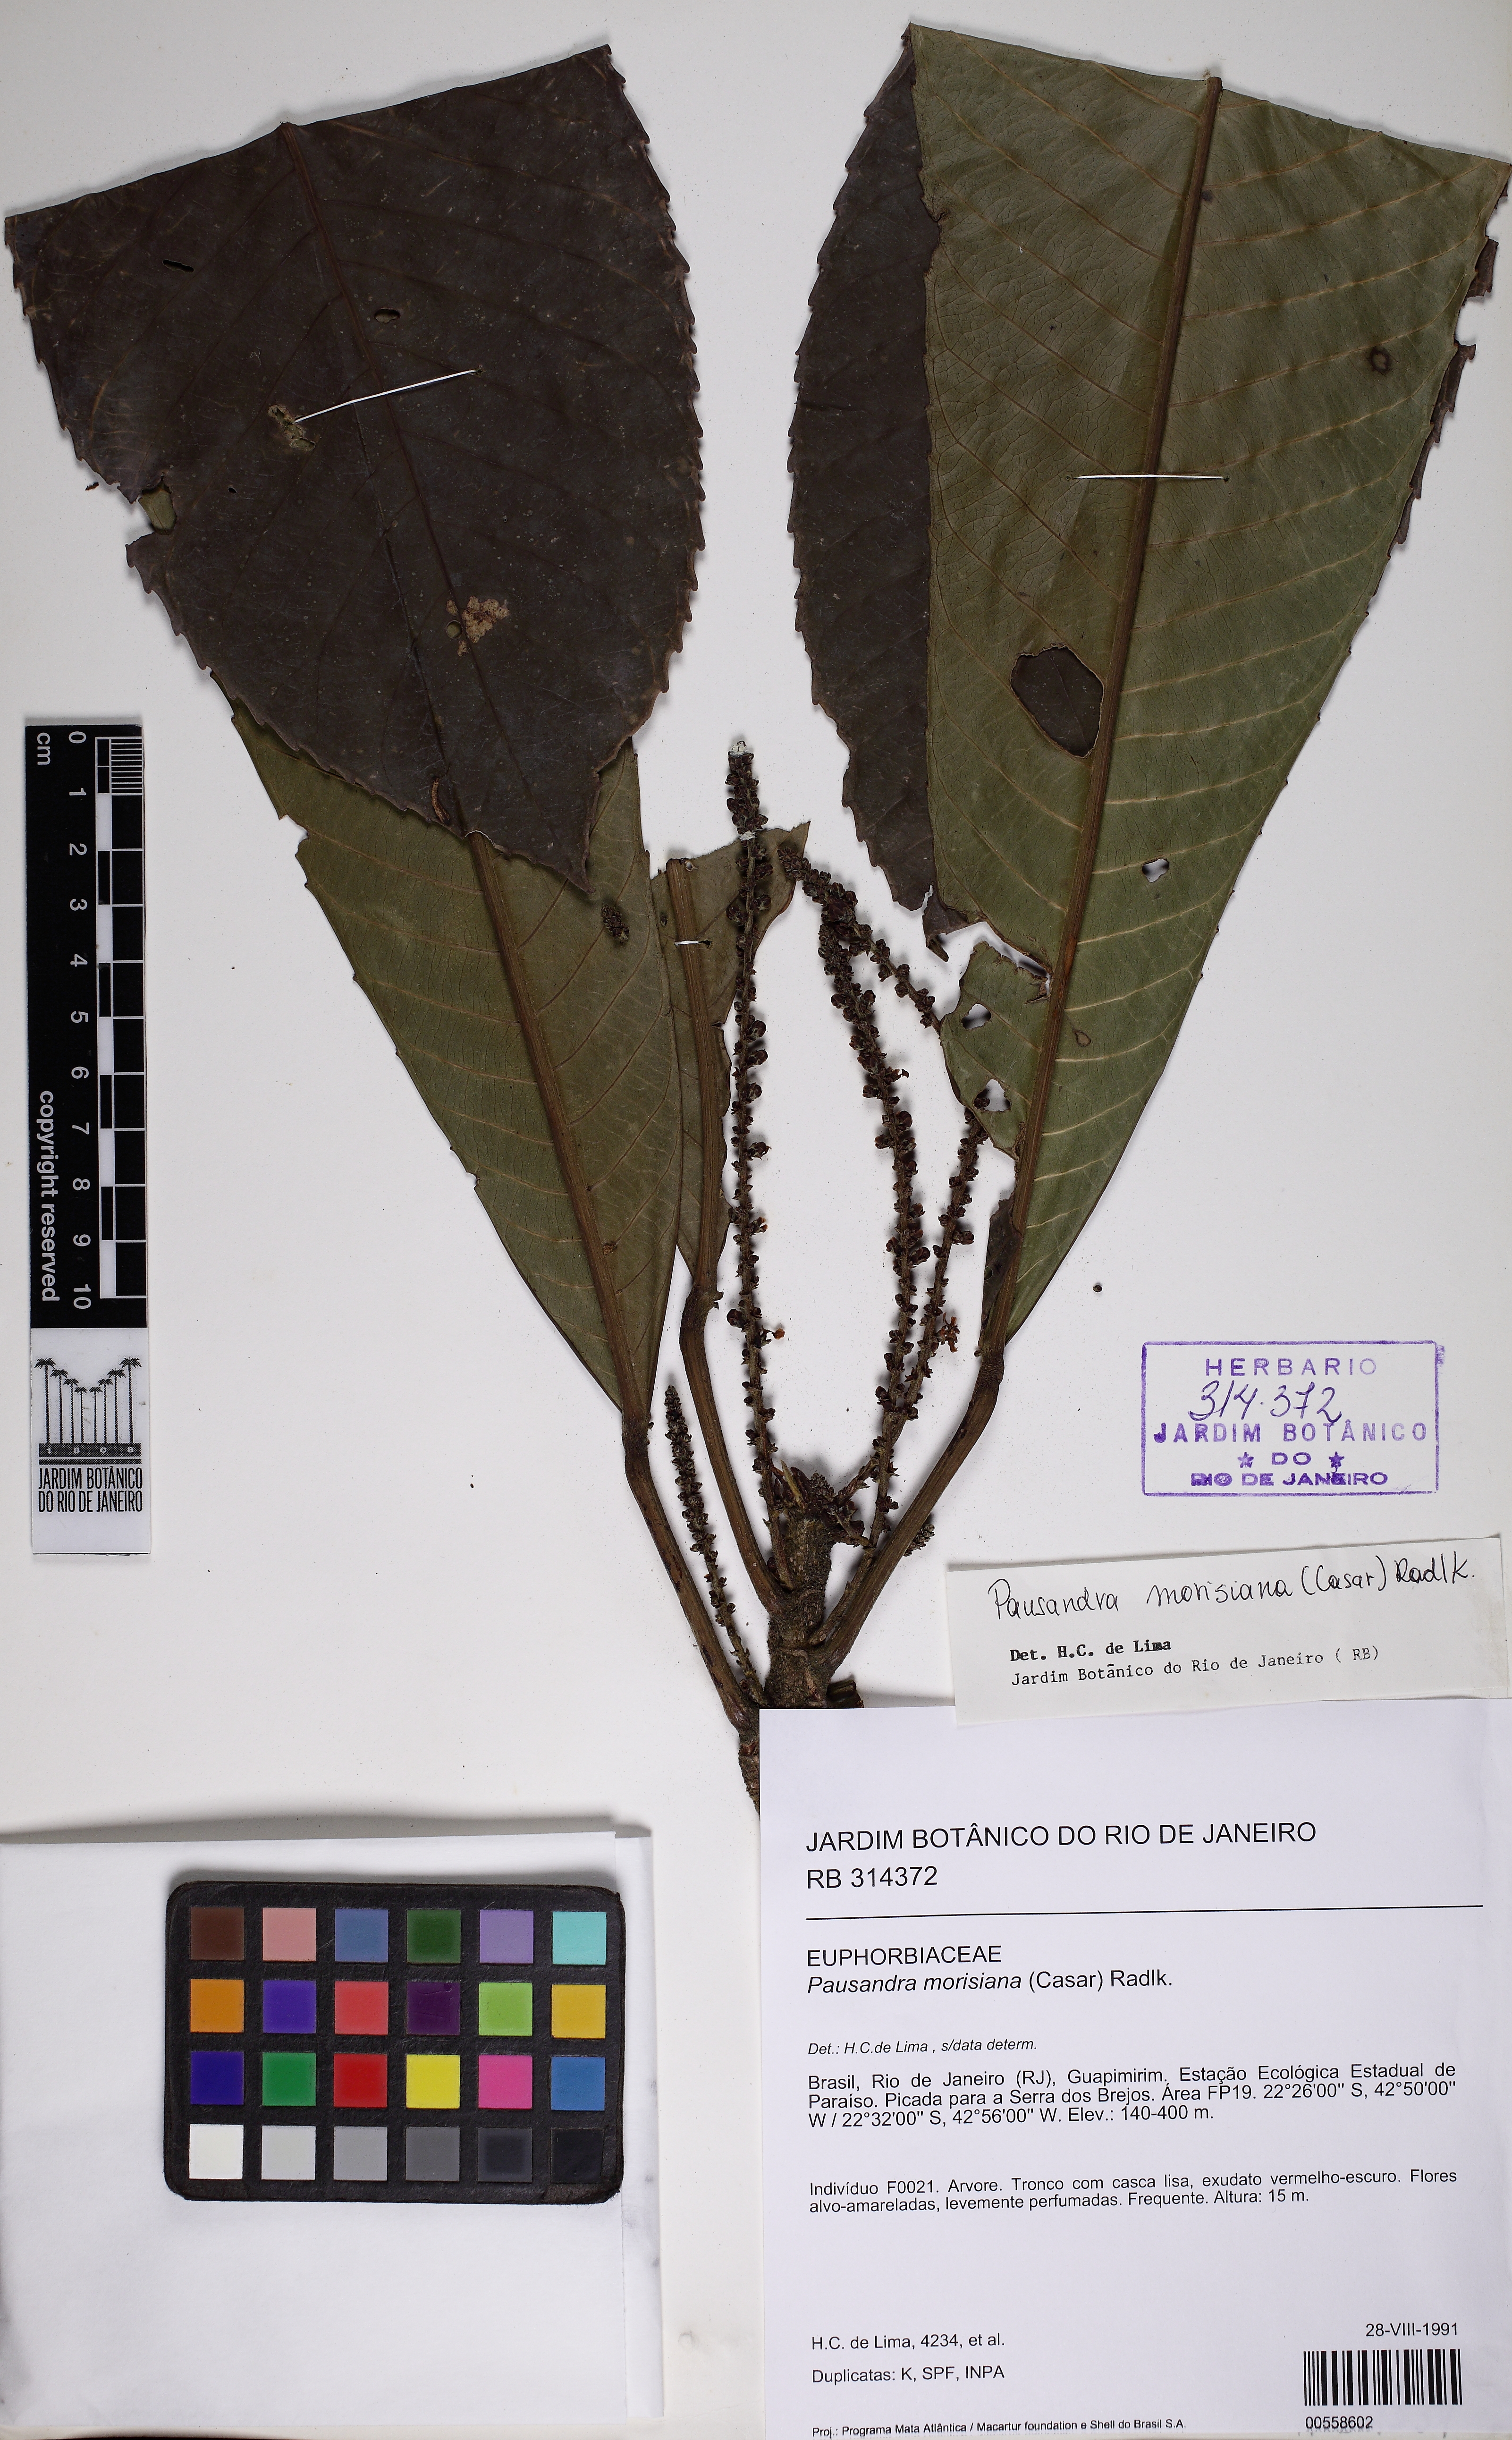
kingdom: Plantae
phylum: Tracheophyta
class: Magnoliopsida
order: Malpighiales
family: Euphorbiaceae
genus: Pausandra
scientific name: Pausandra morisiana
